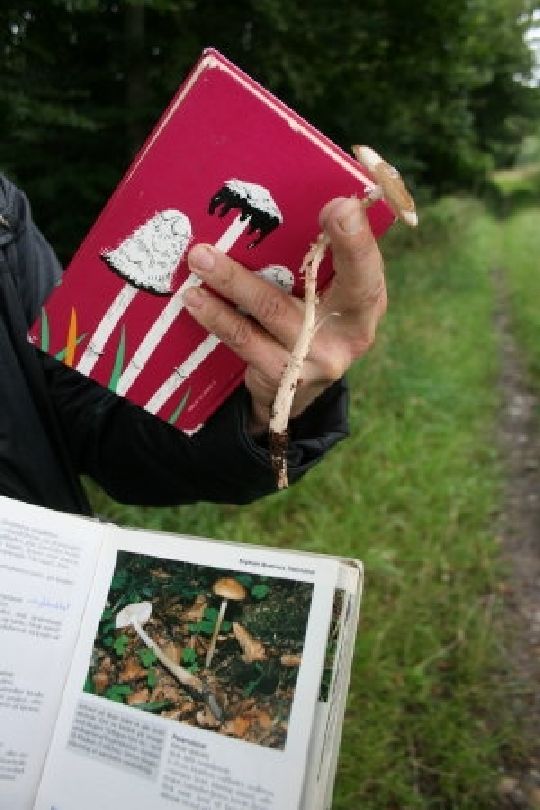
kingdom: Fungi
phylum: Basidiomycota
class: Agaricomycetes
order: Agaricales
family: Physalacriaceae
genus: Hymenopellis
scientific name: Hymenopellis radicata
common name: almindelig pælerodshat
